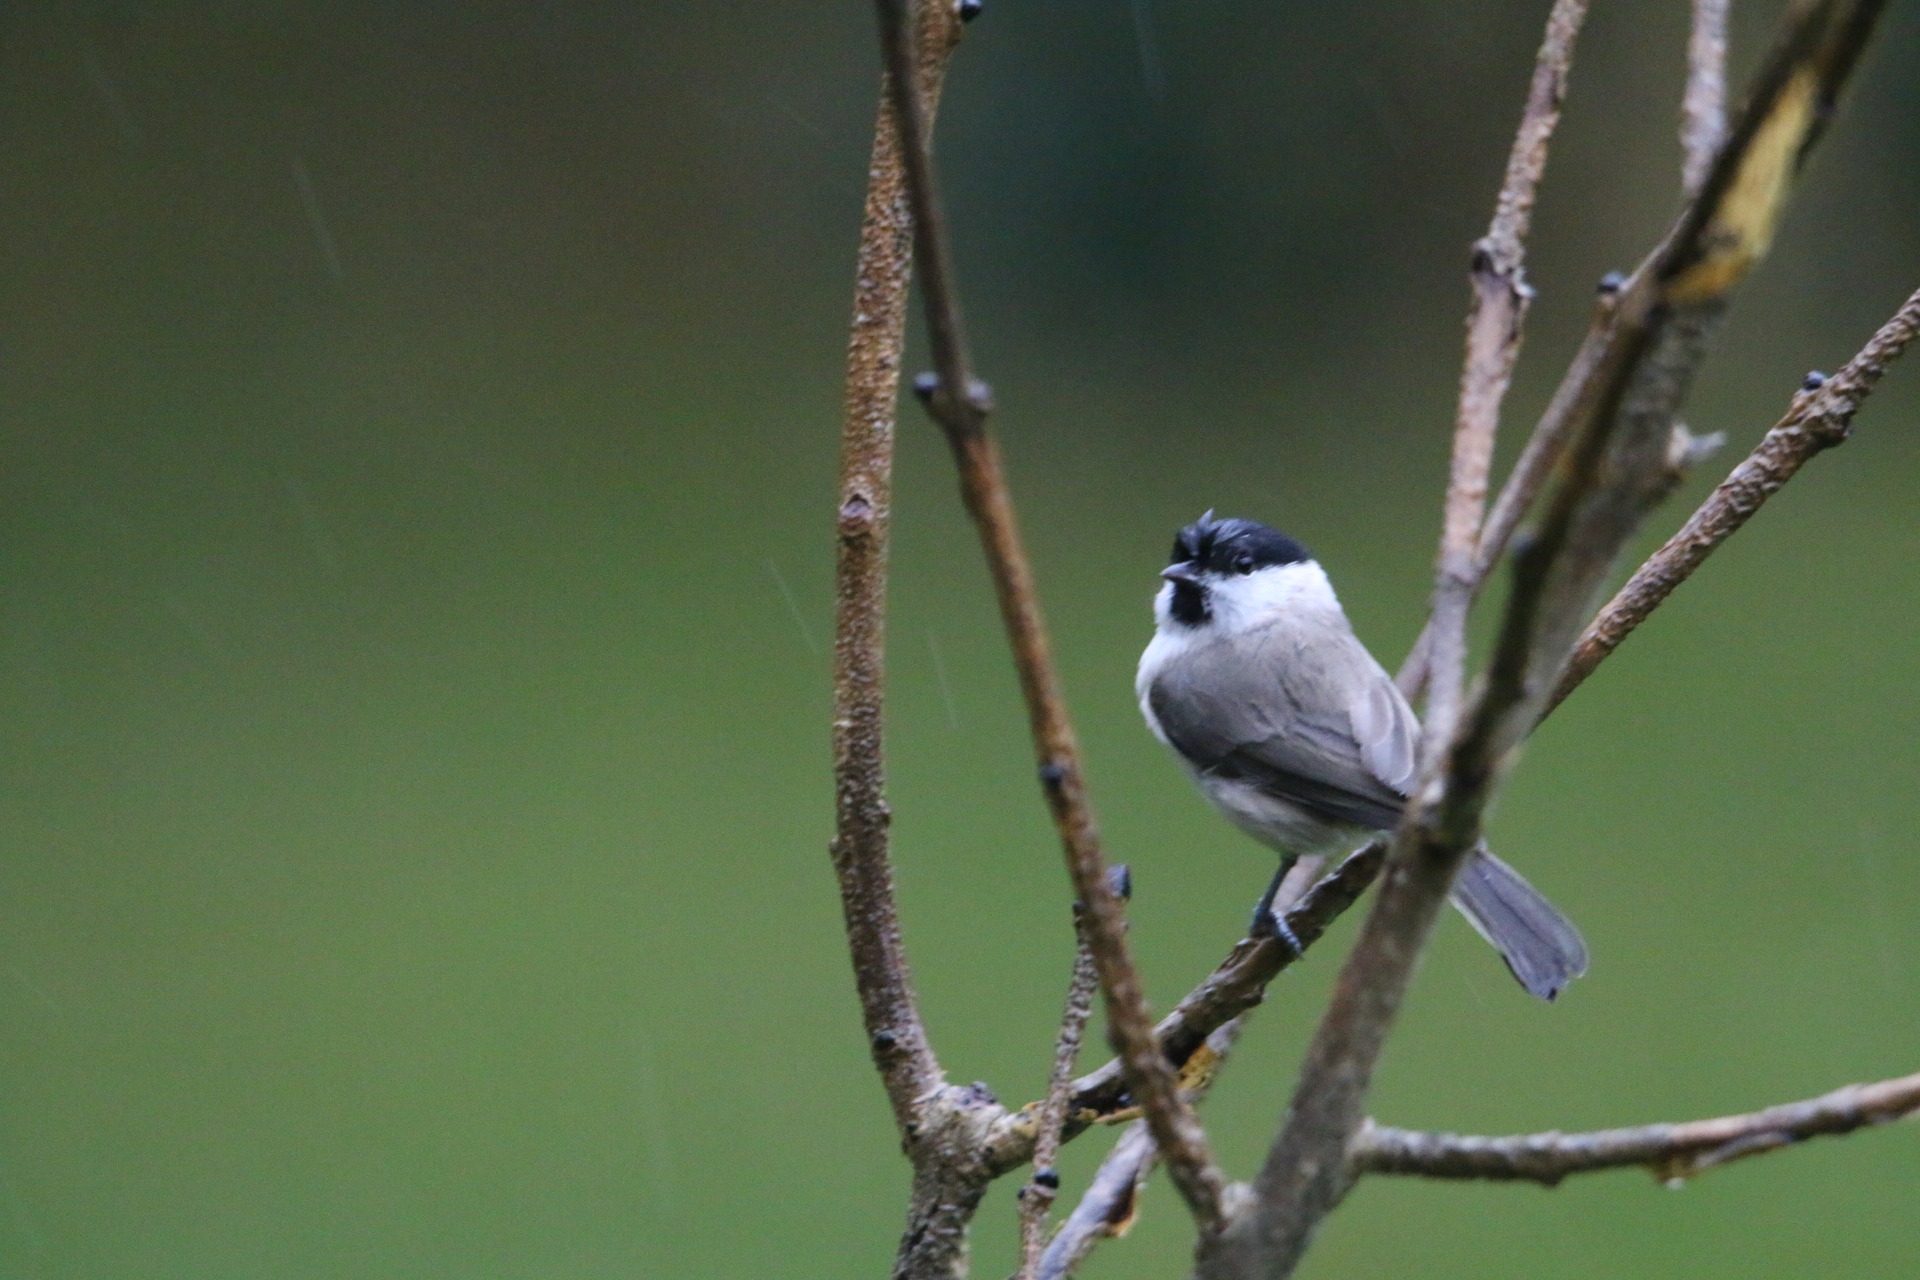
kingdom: Animalia
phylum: Chordata
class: Aves
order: Passeriformes
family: Paridae
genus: Poecile
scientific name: Poecile palustris
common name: Sumpmejse
